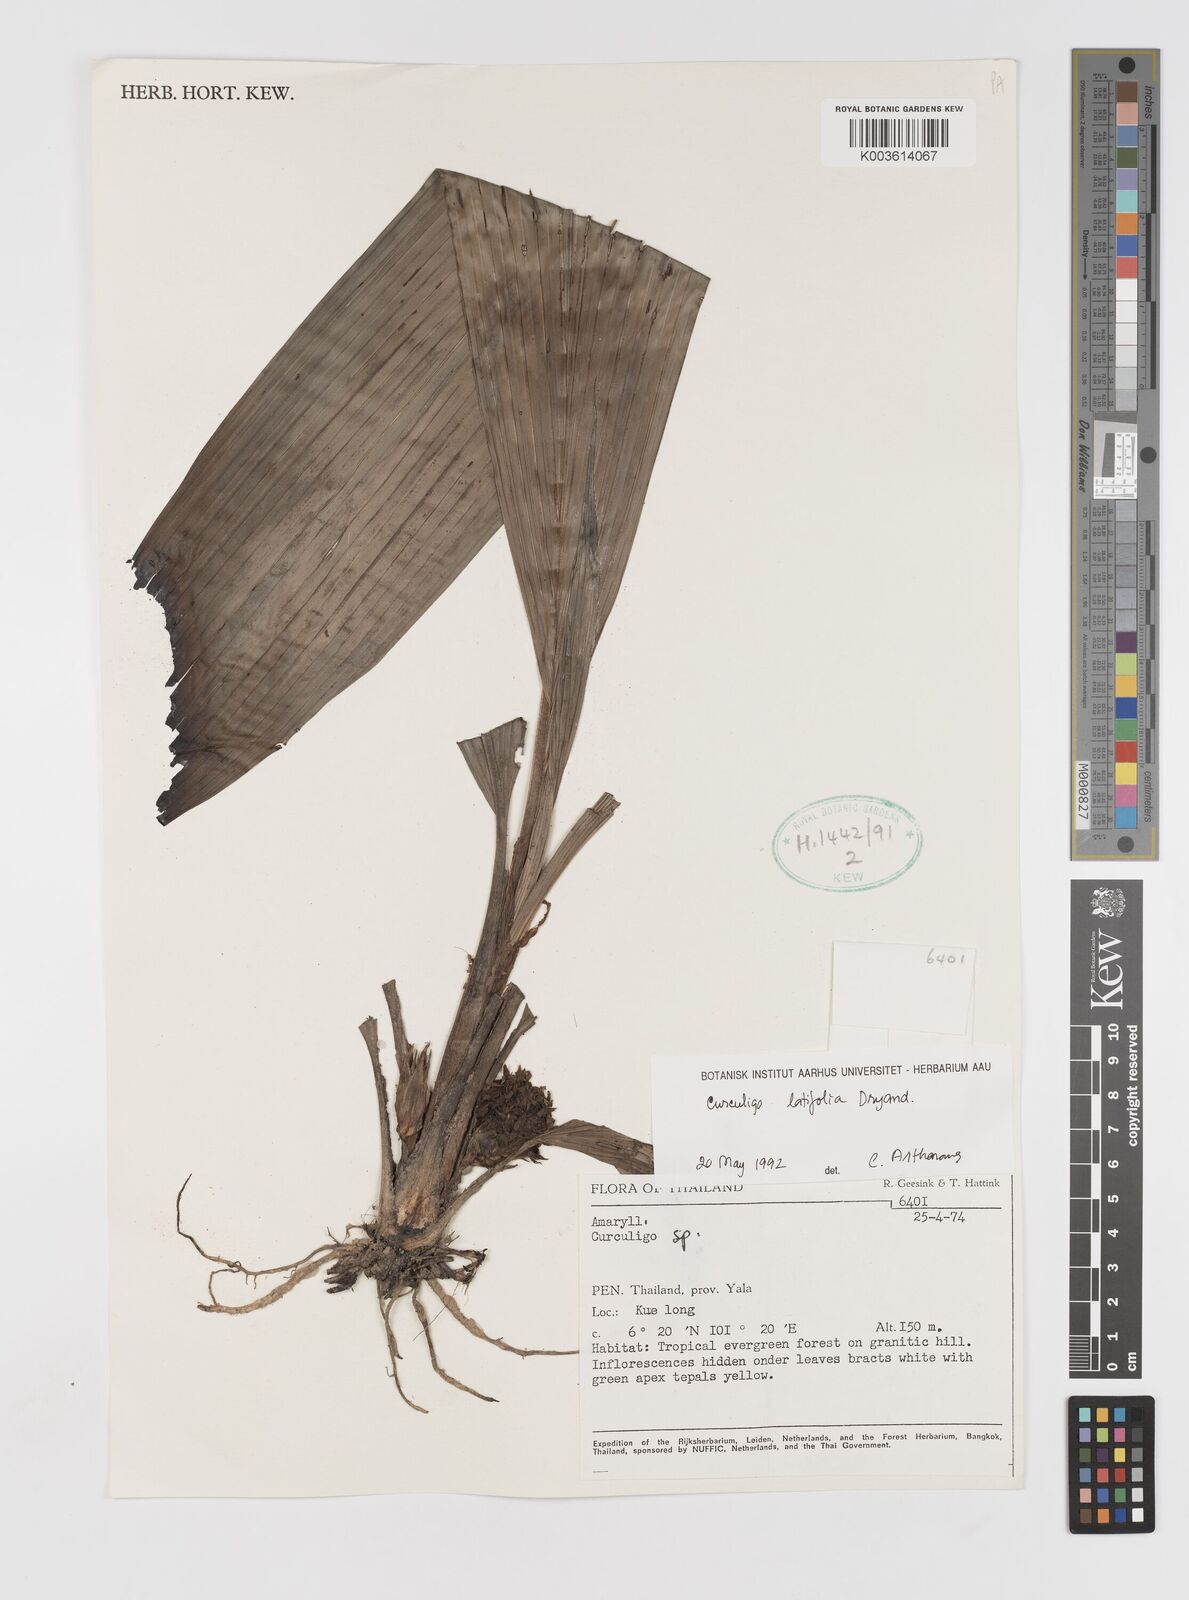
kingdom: Plantae
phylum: Tracheophyta
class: Liliopsida
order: Asparagales
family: Hypoxidaceae
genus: Curculigo
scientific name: Curculigo latifolia
